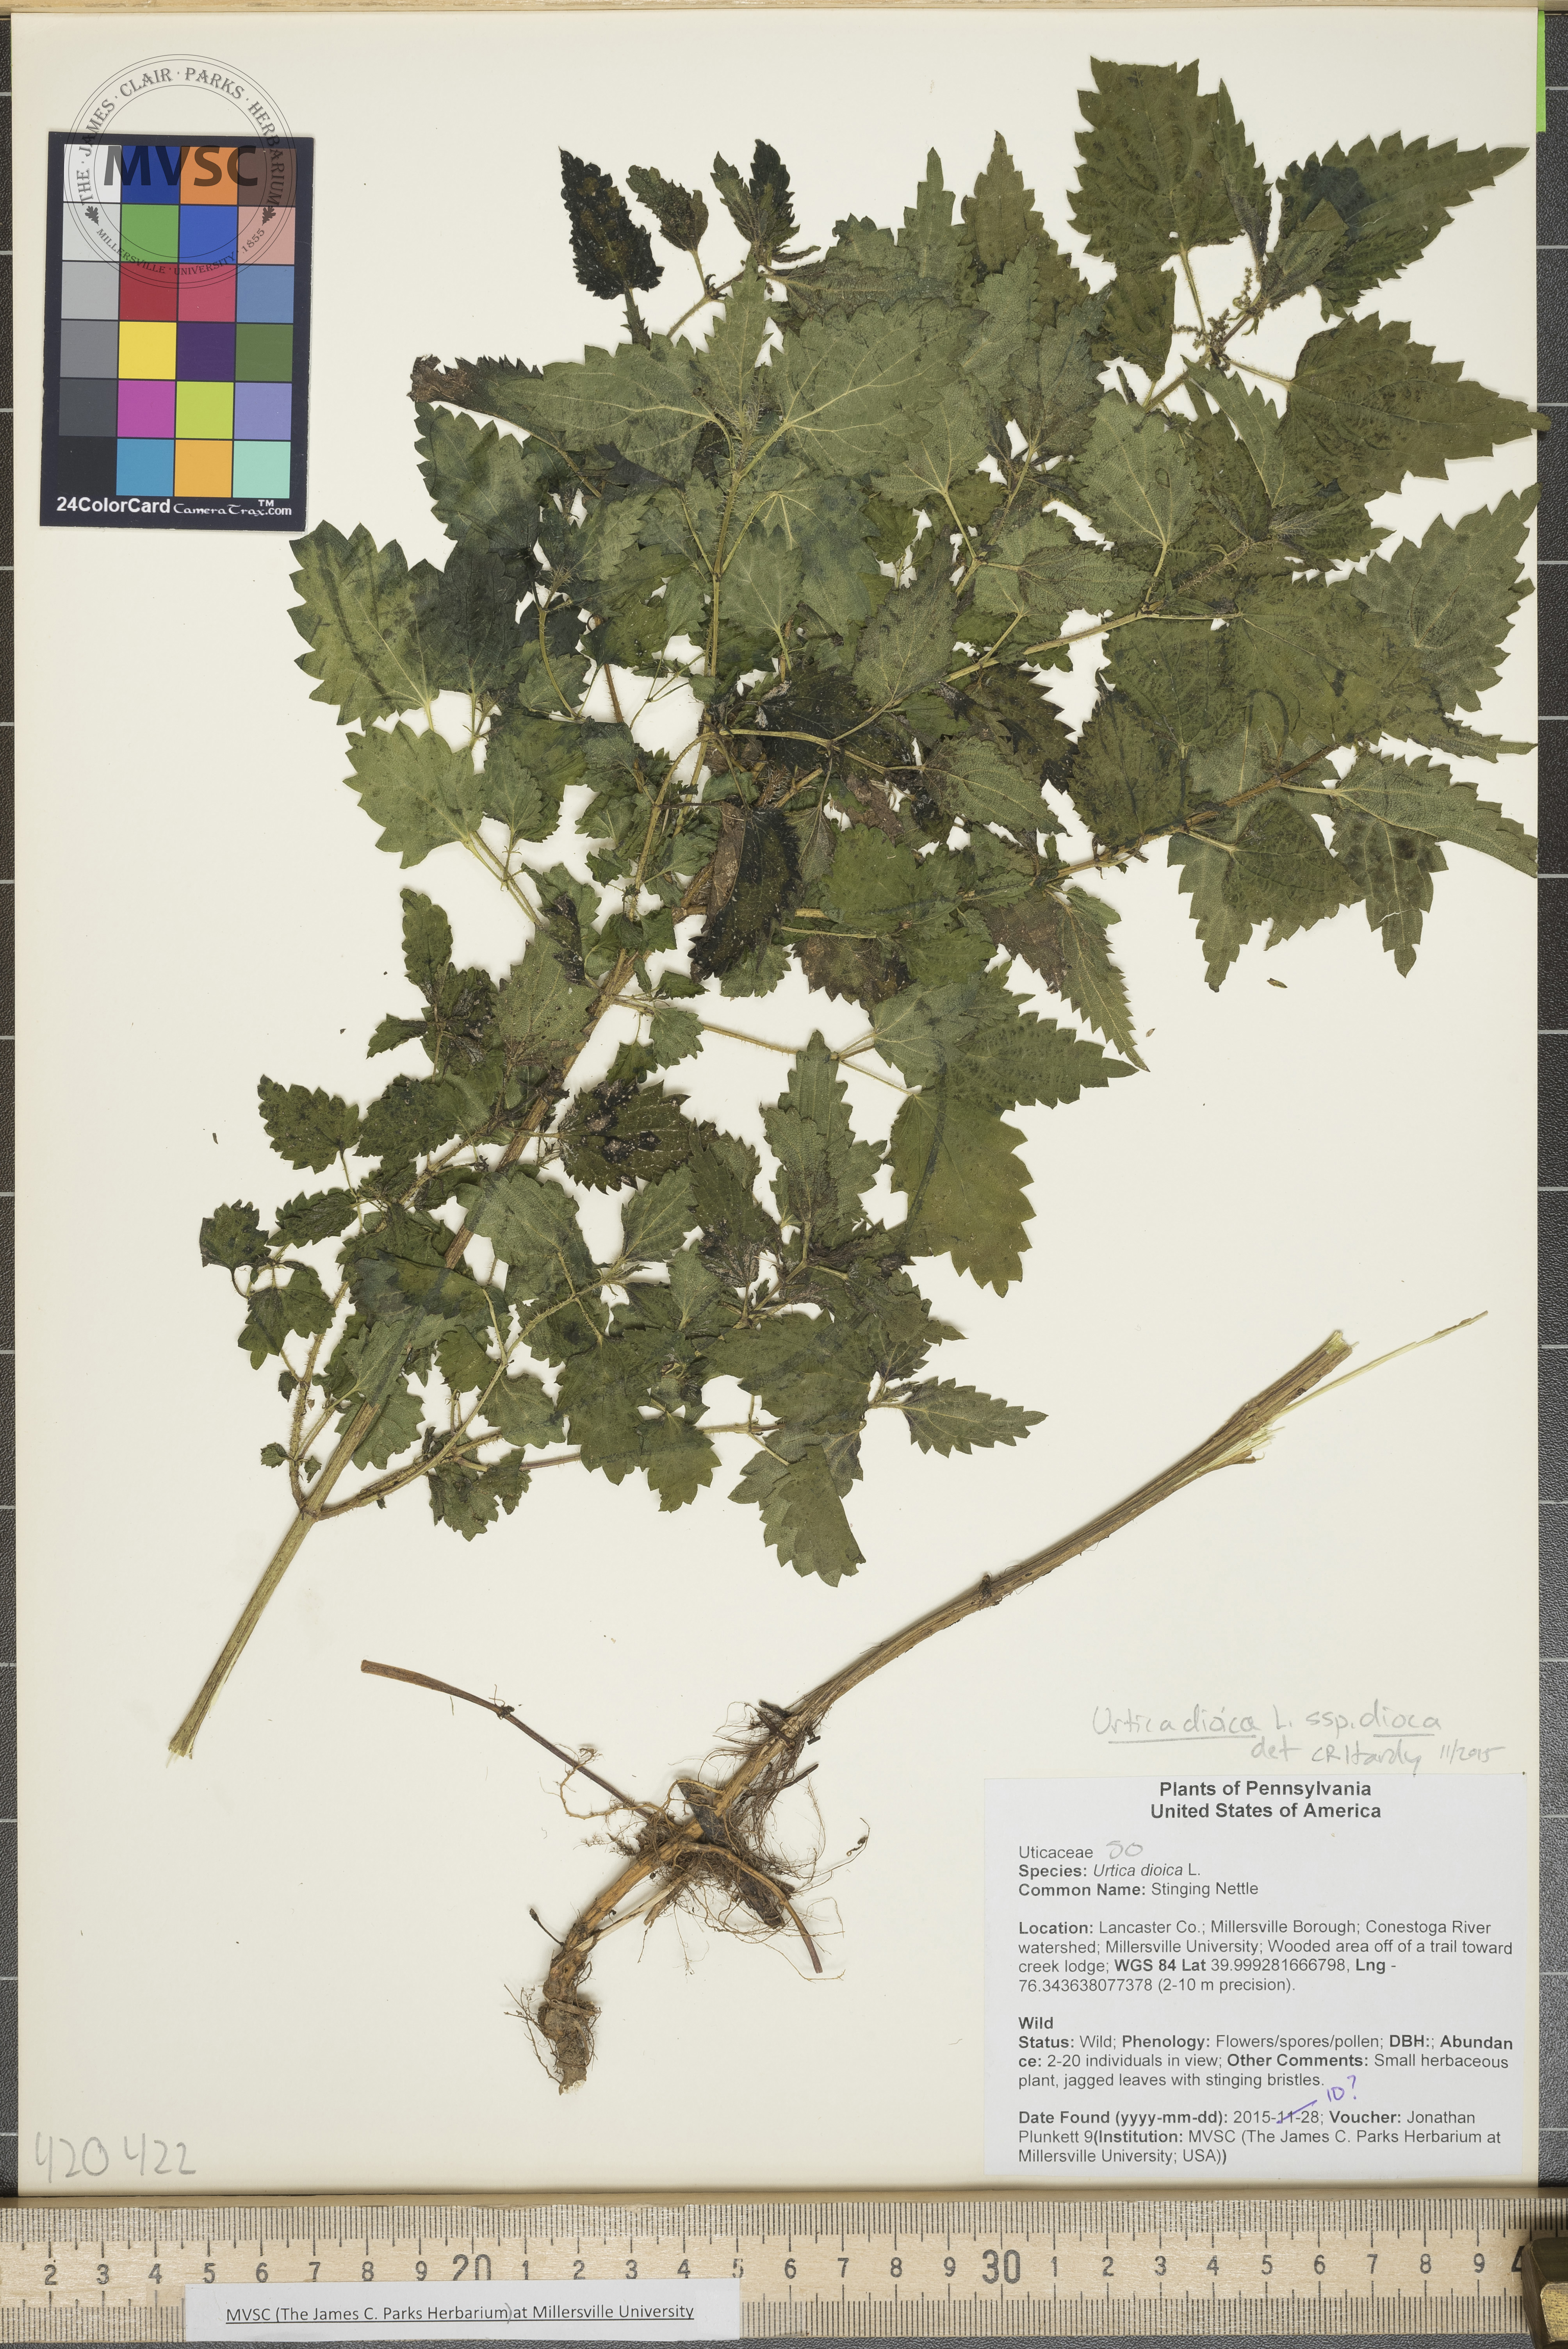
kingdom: Plantae
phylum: Tracheophyta
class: Magnoliopsida
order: Rosales
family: Urticaceae
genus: Urtica
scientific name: Urtica dioica
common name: Stinging Nettle
